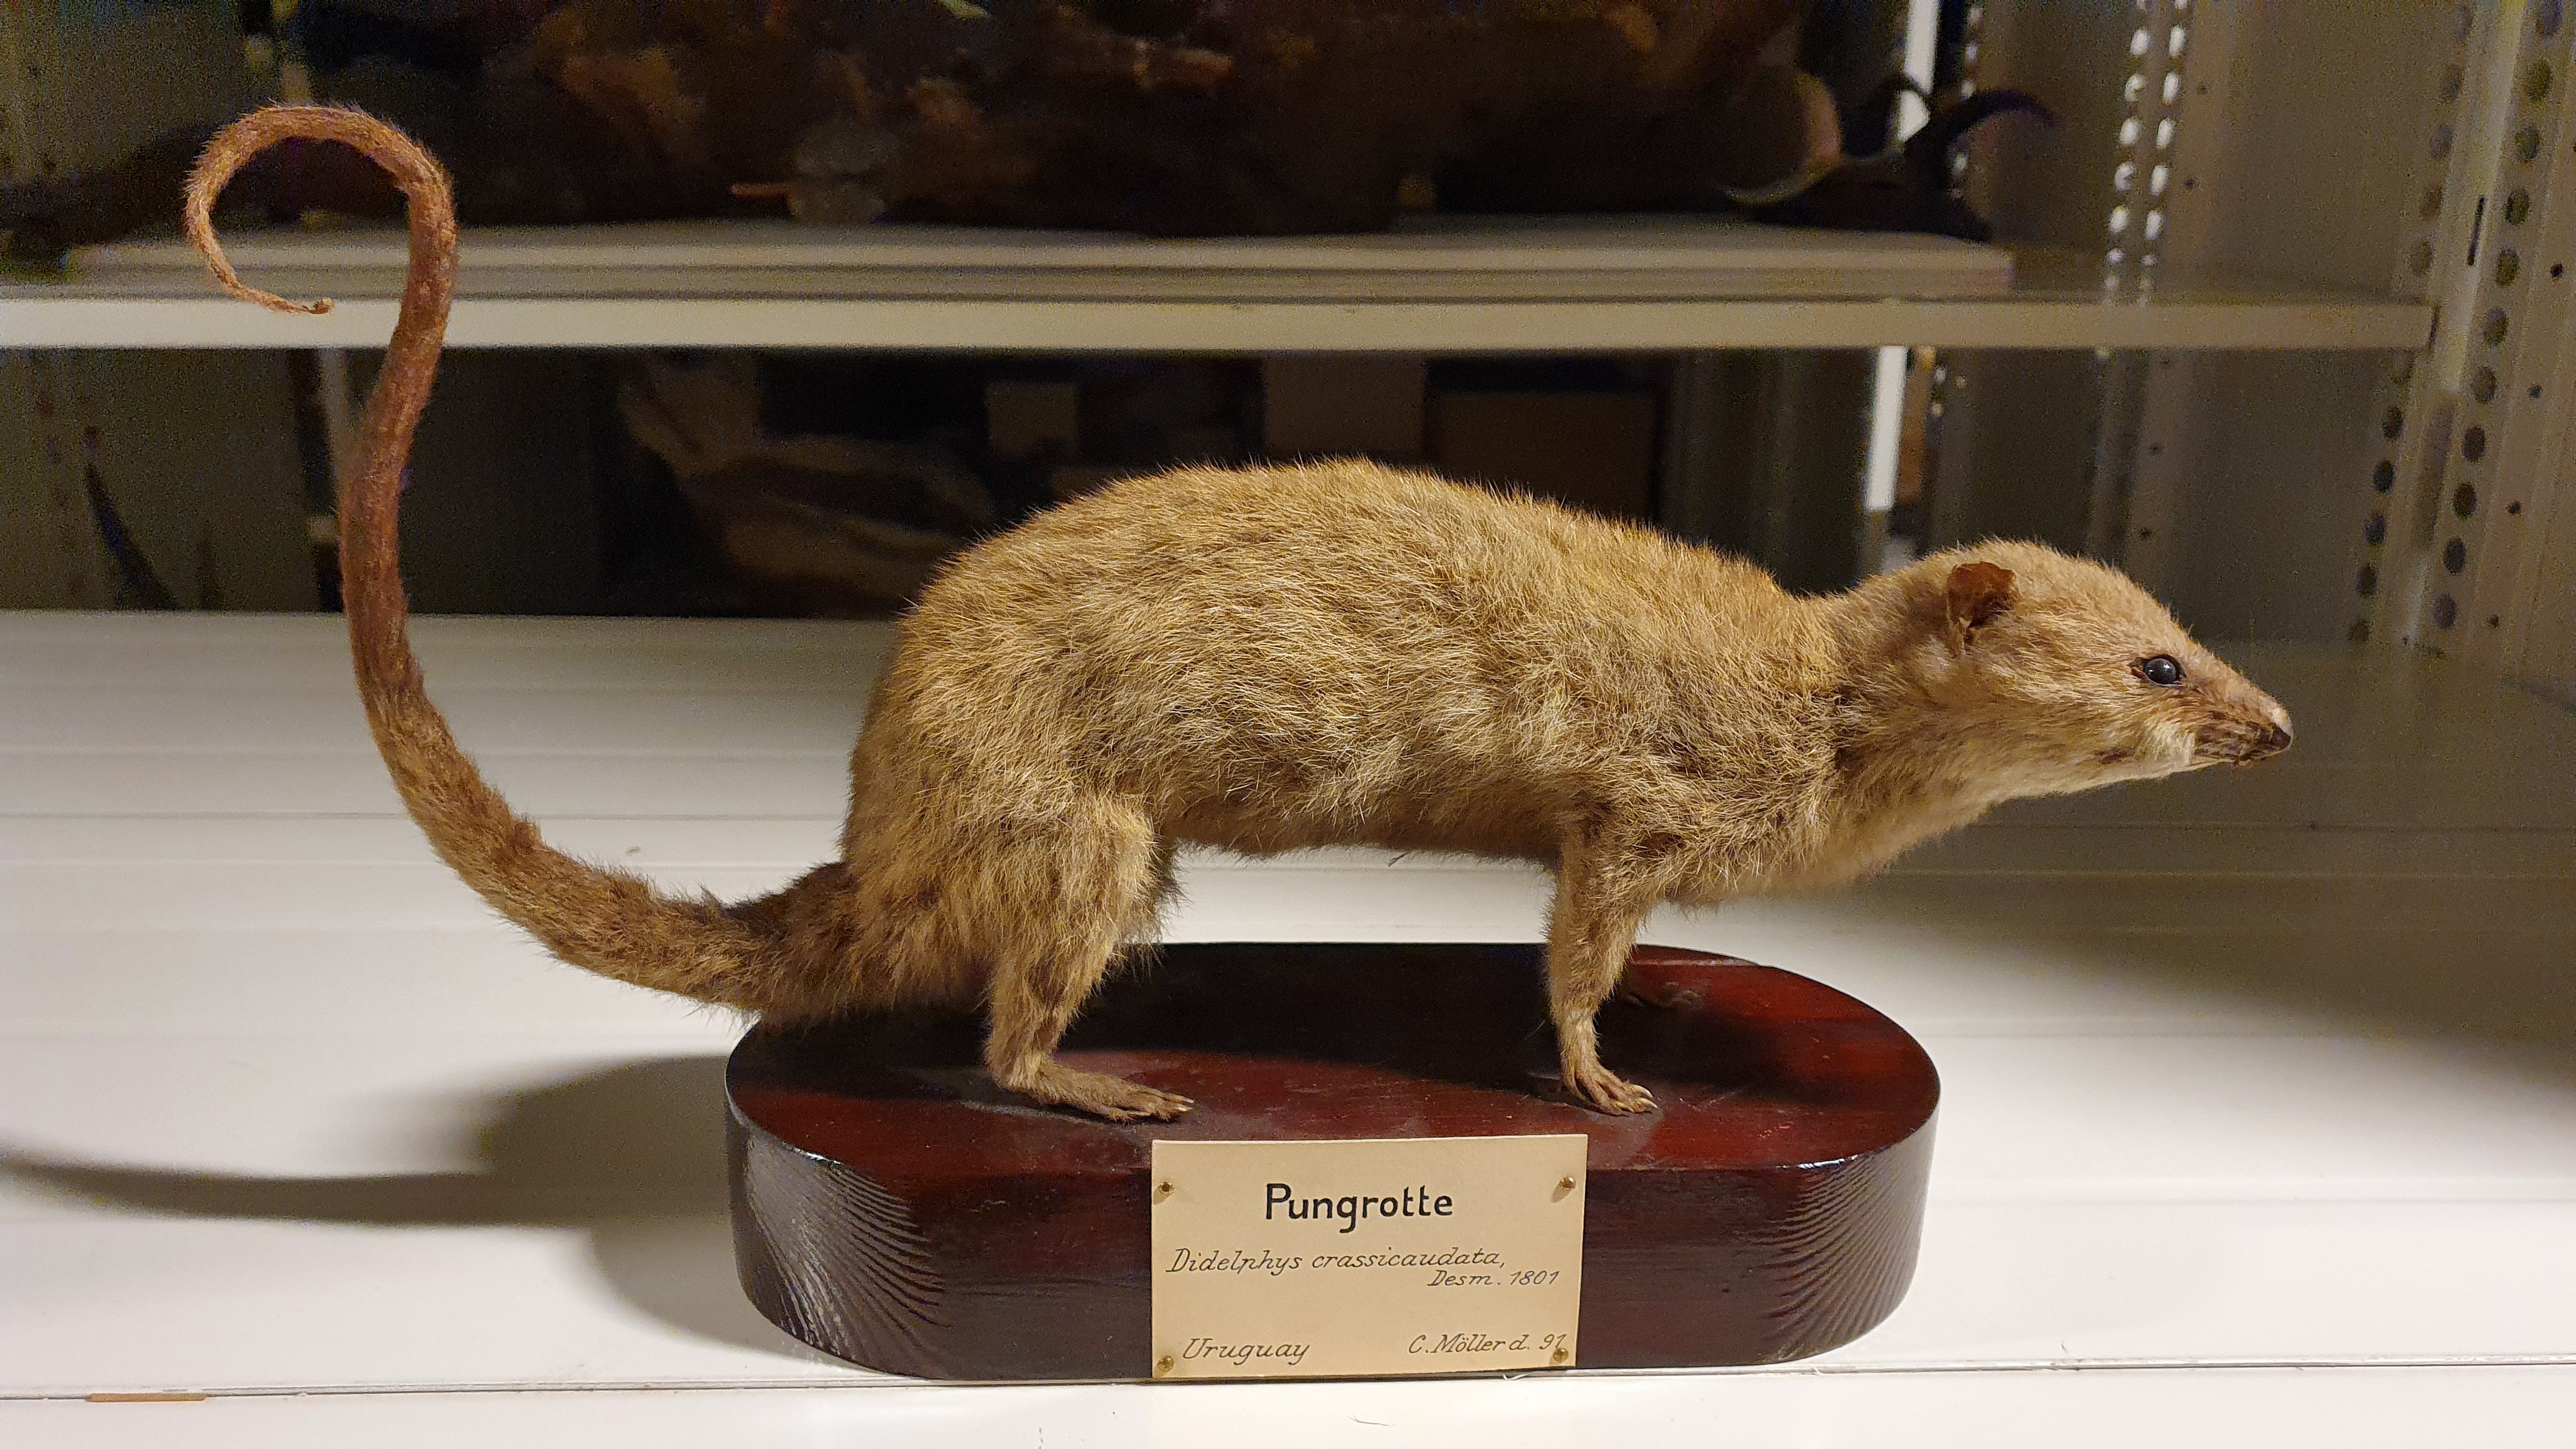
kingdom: Animalia
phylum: Chordata
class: Mammalia
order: Didelphimorphia
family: Didelphidae
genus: Lutreolina
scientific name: Lutreolina crassicaudata
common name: Lutrine opossum
